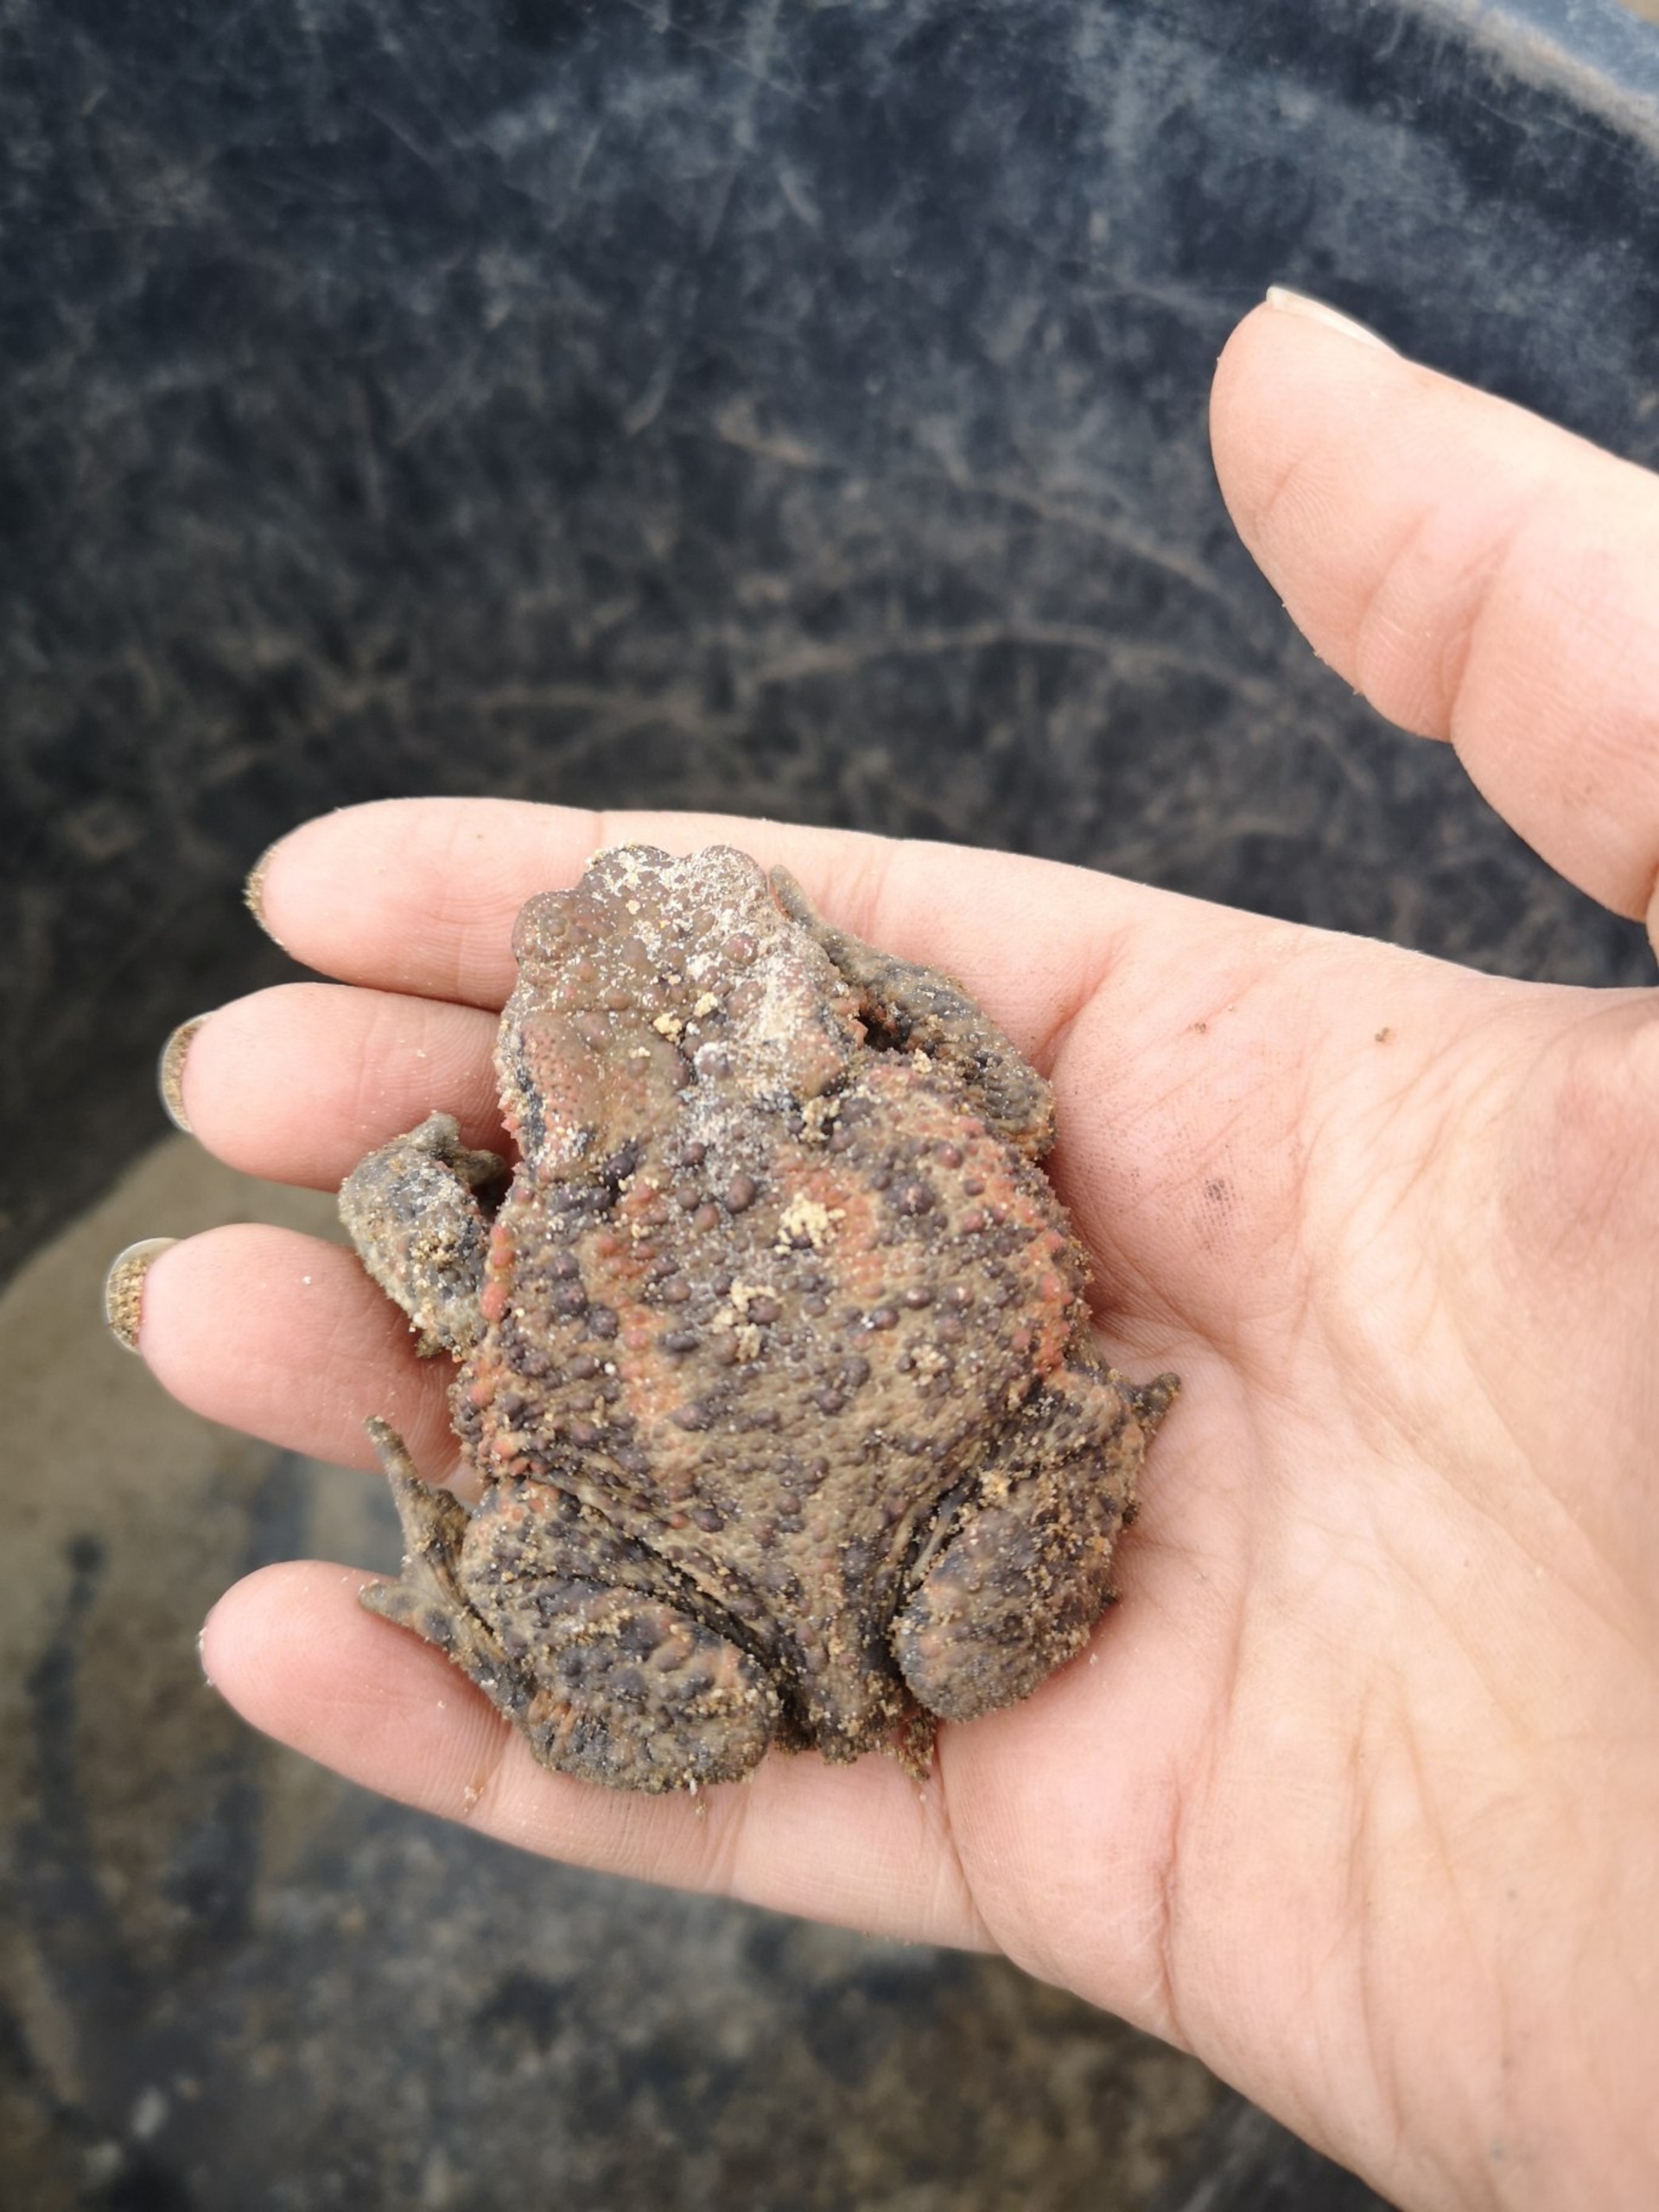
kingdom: Animalia
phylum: Chordata
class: Amphibia
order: Anura
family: Bufonidae
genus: Bufo
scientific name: Bufo bufo
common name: Skrubtudse
